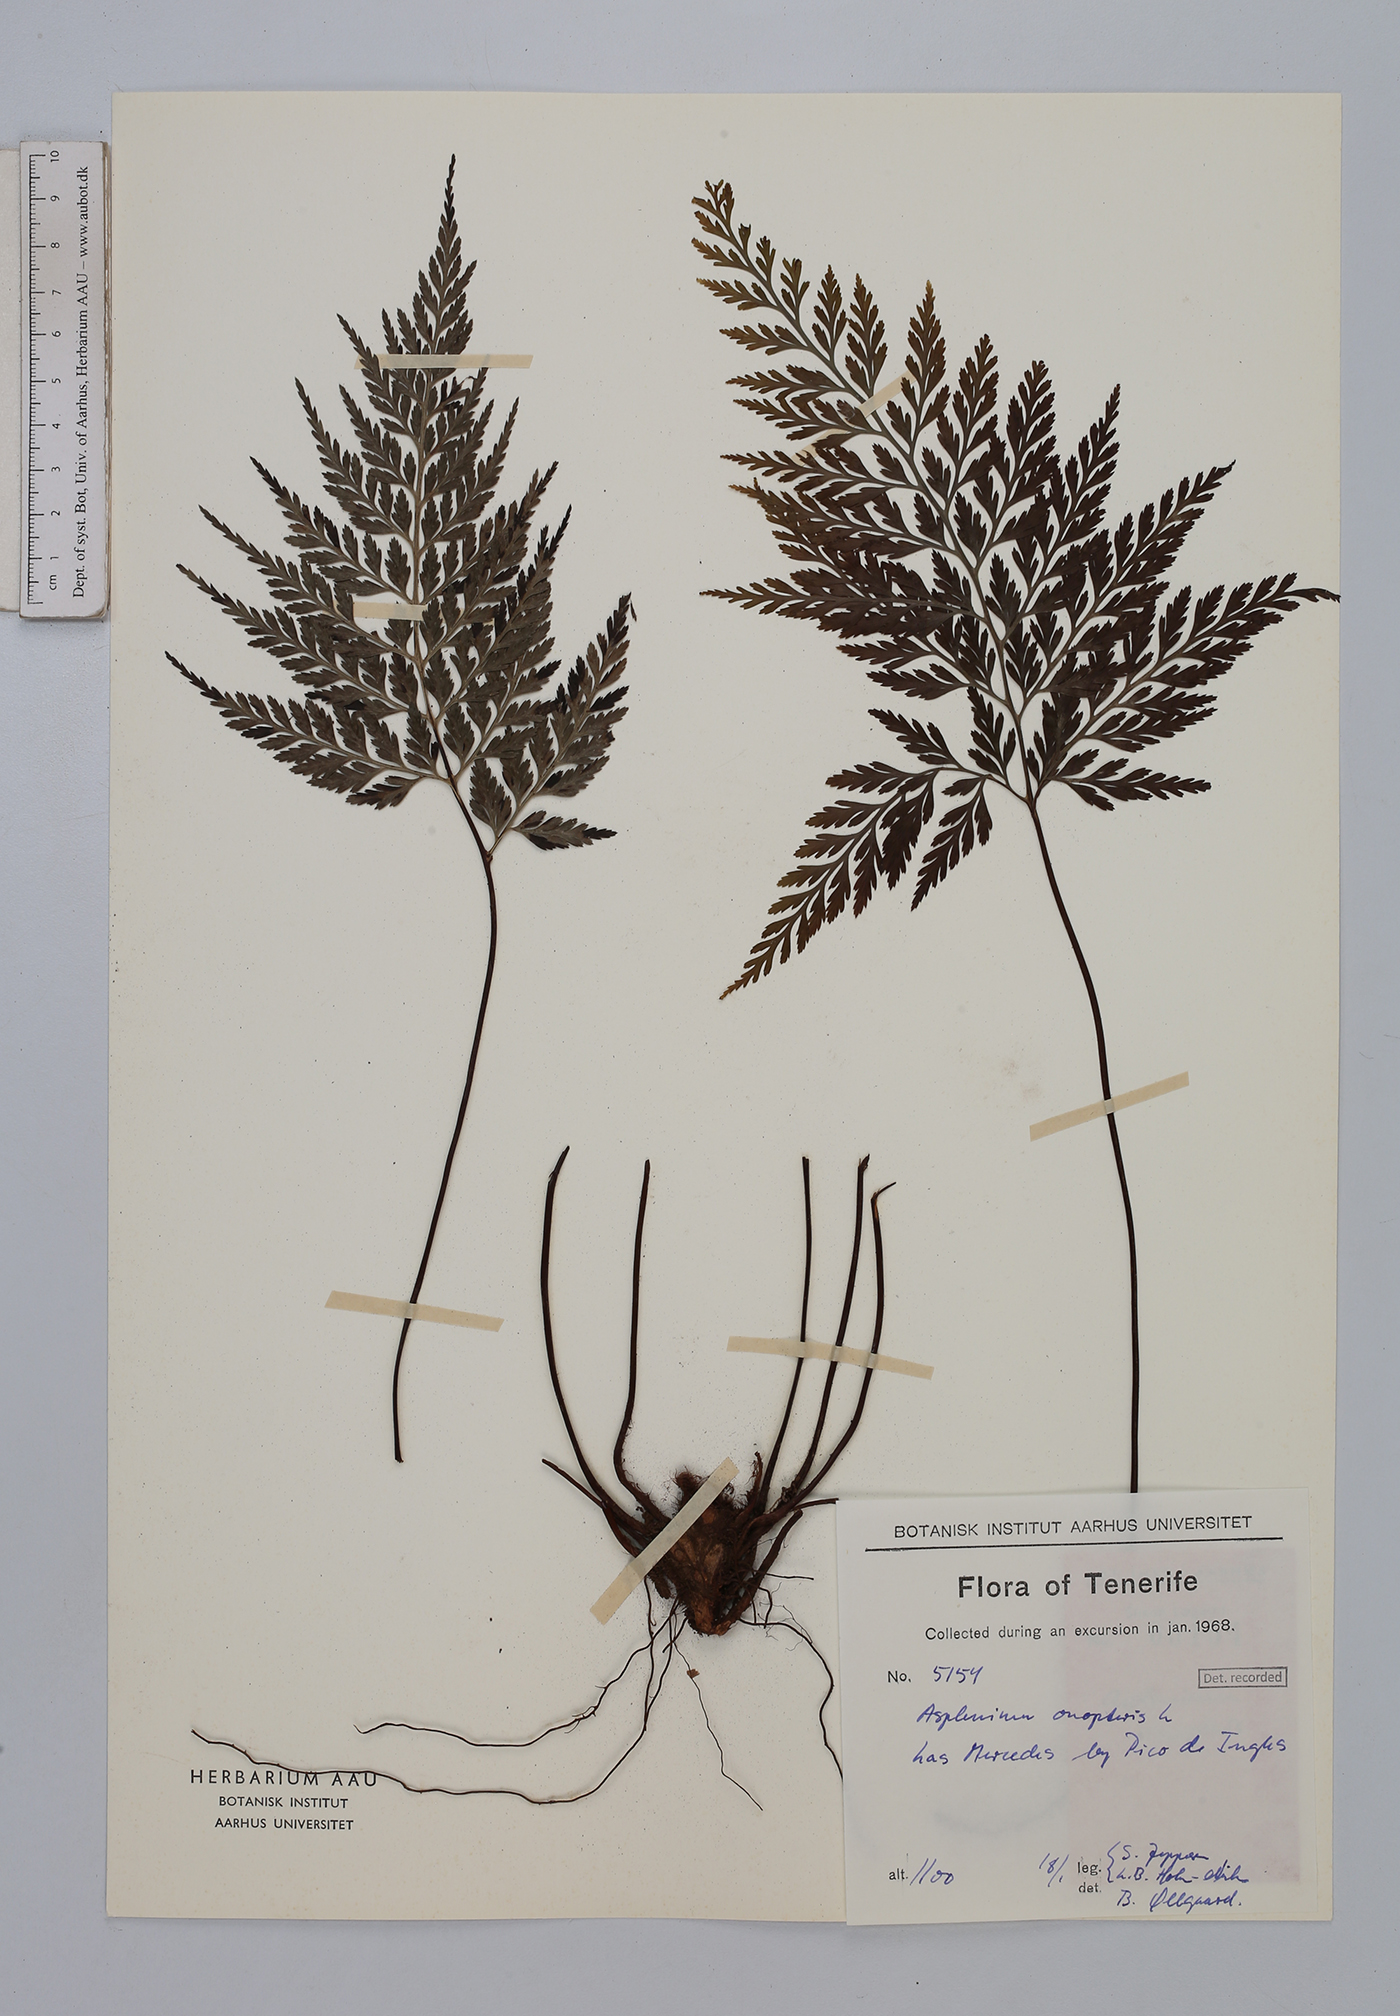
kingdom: Plantae
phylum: Tracheophyta
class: Polypodiopsida
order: Polypodiales
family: Aspleniaceae
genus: Asplenium
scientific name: Asplenium onopteris
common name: Irish spleenwort
